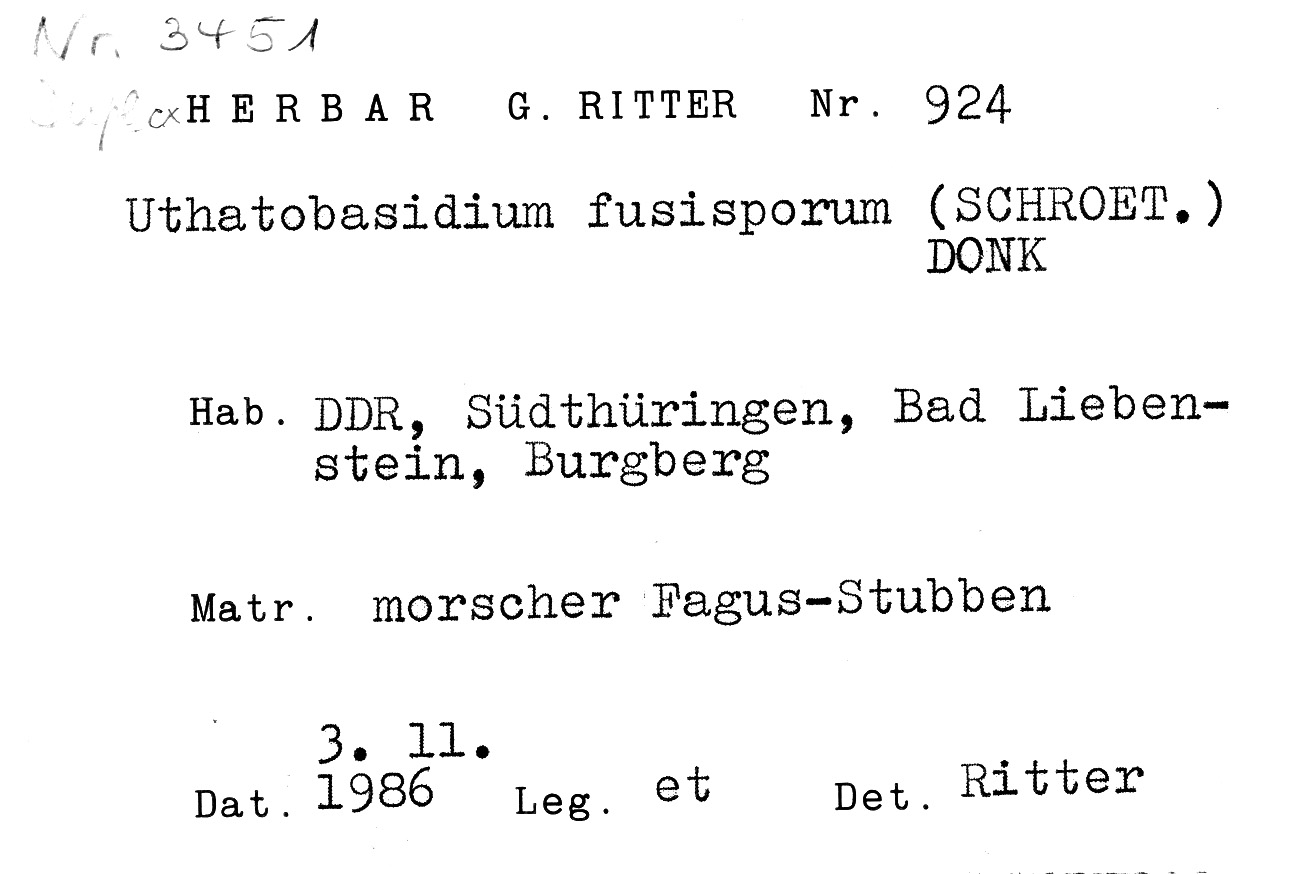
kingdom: Plantae
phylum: Tracheophyta
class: Magnoliopsida
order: Fagales
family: Fagaceae
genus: Fagus
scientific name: Fagus sylvatica
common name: Beech
